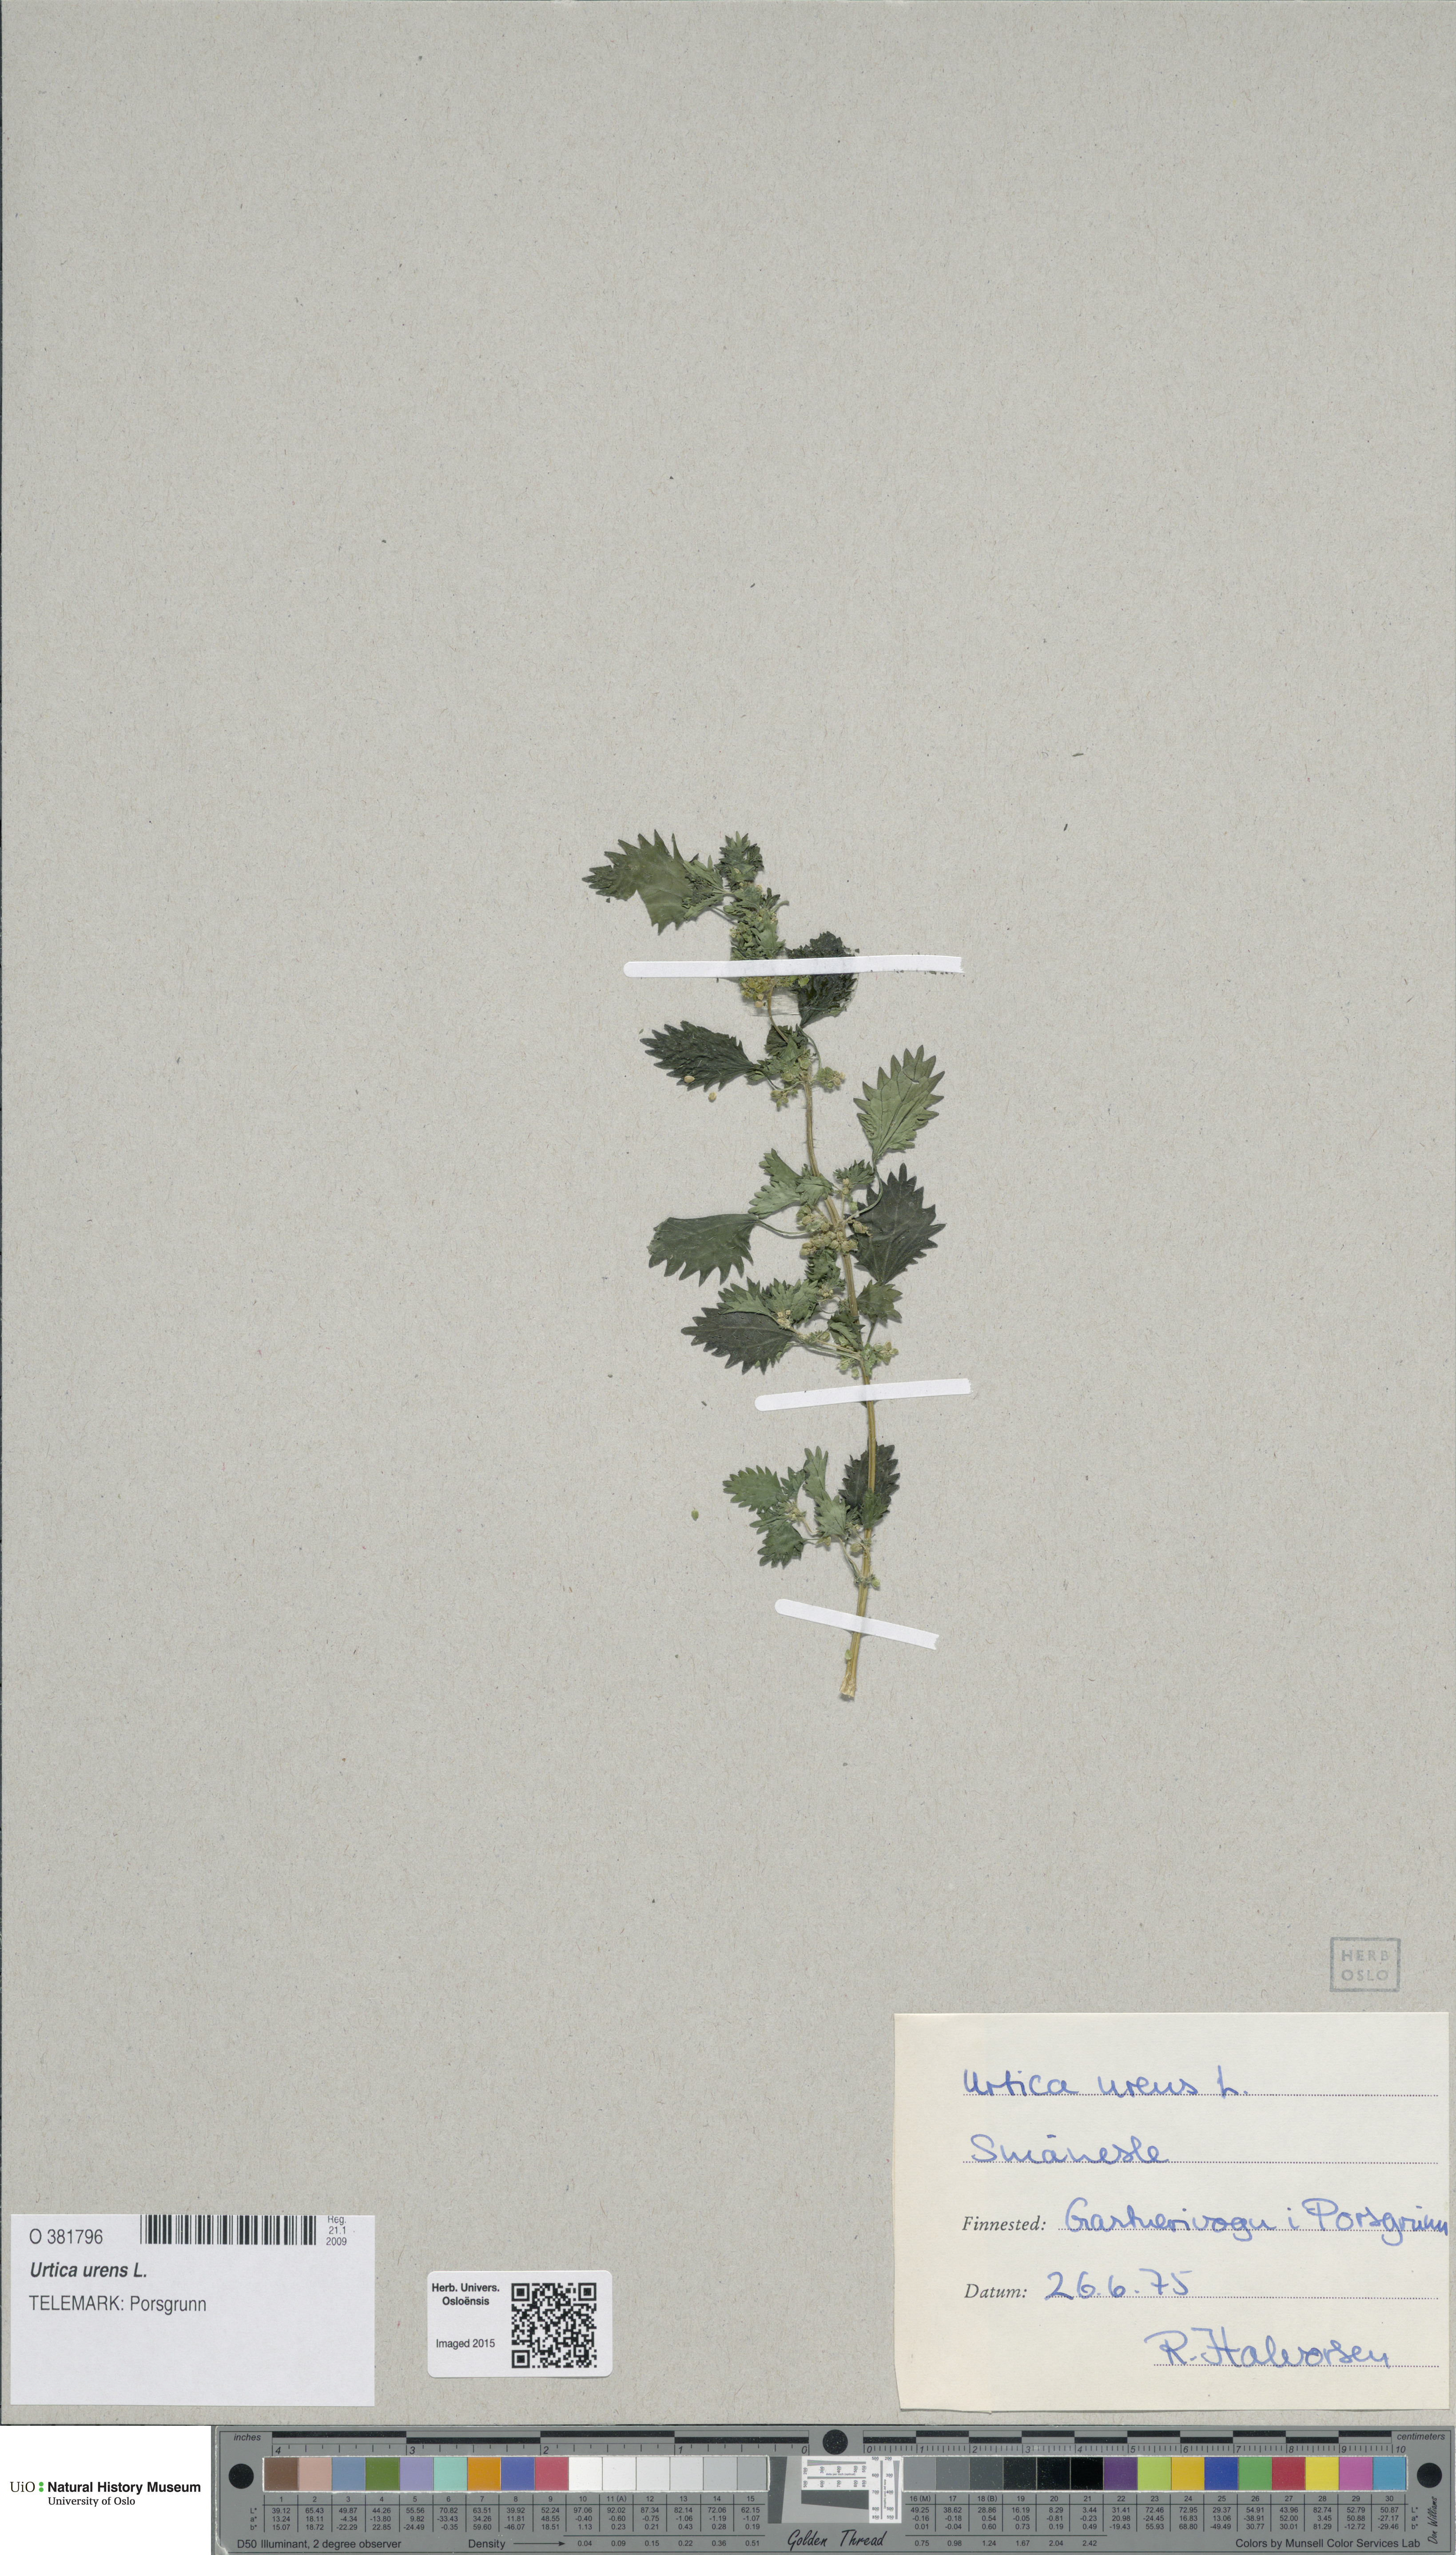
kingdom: Plantae
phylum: Tracheophyta
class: Magnoliopsida
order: Rosales
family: Urticaceae
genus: Urtica
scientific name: Urtica urens
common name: Dwarf nettle
